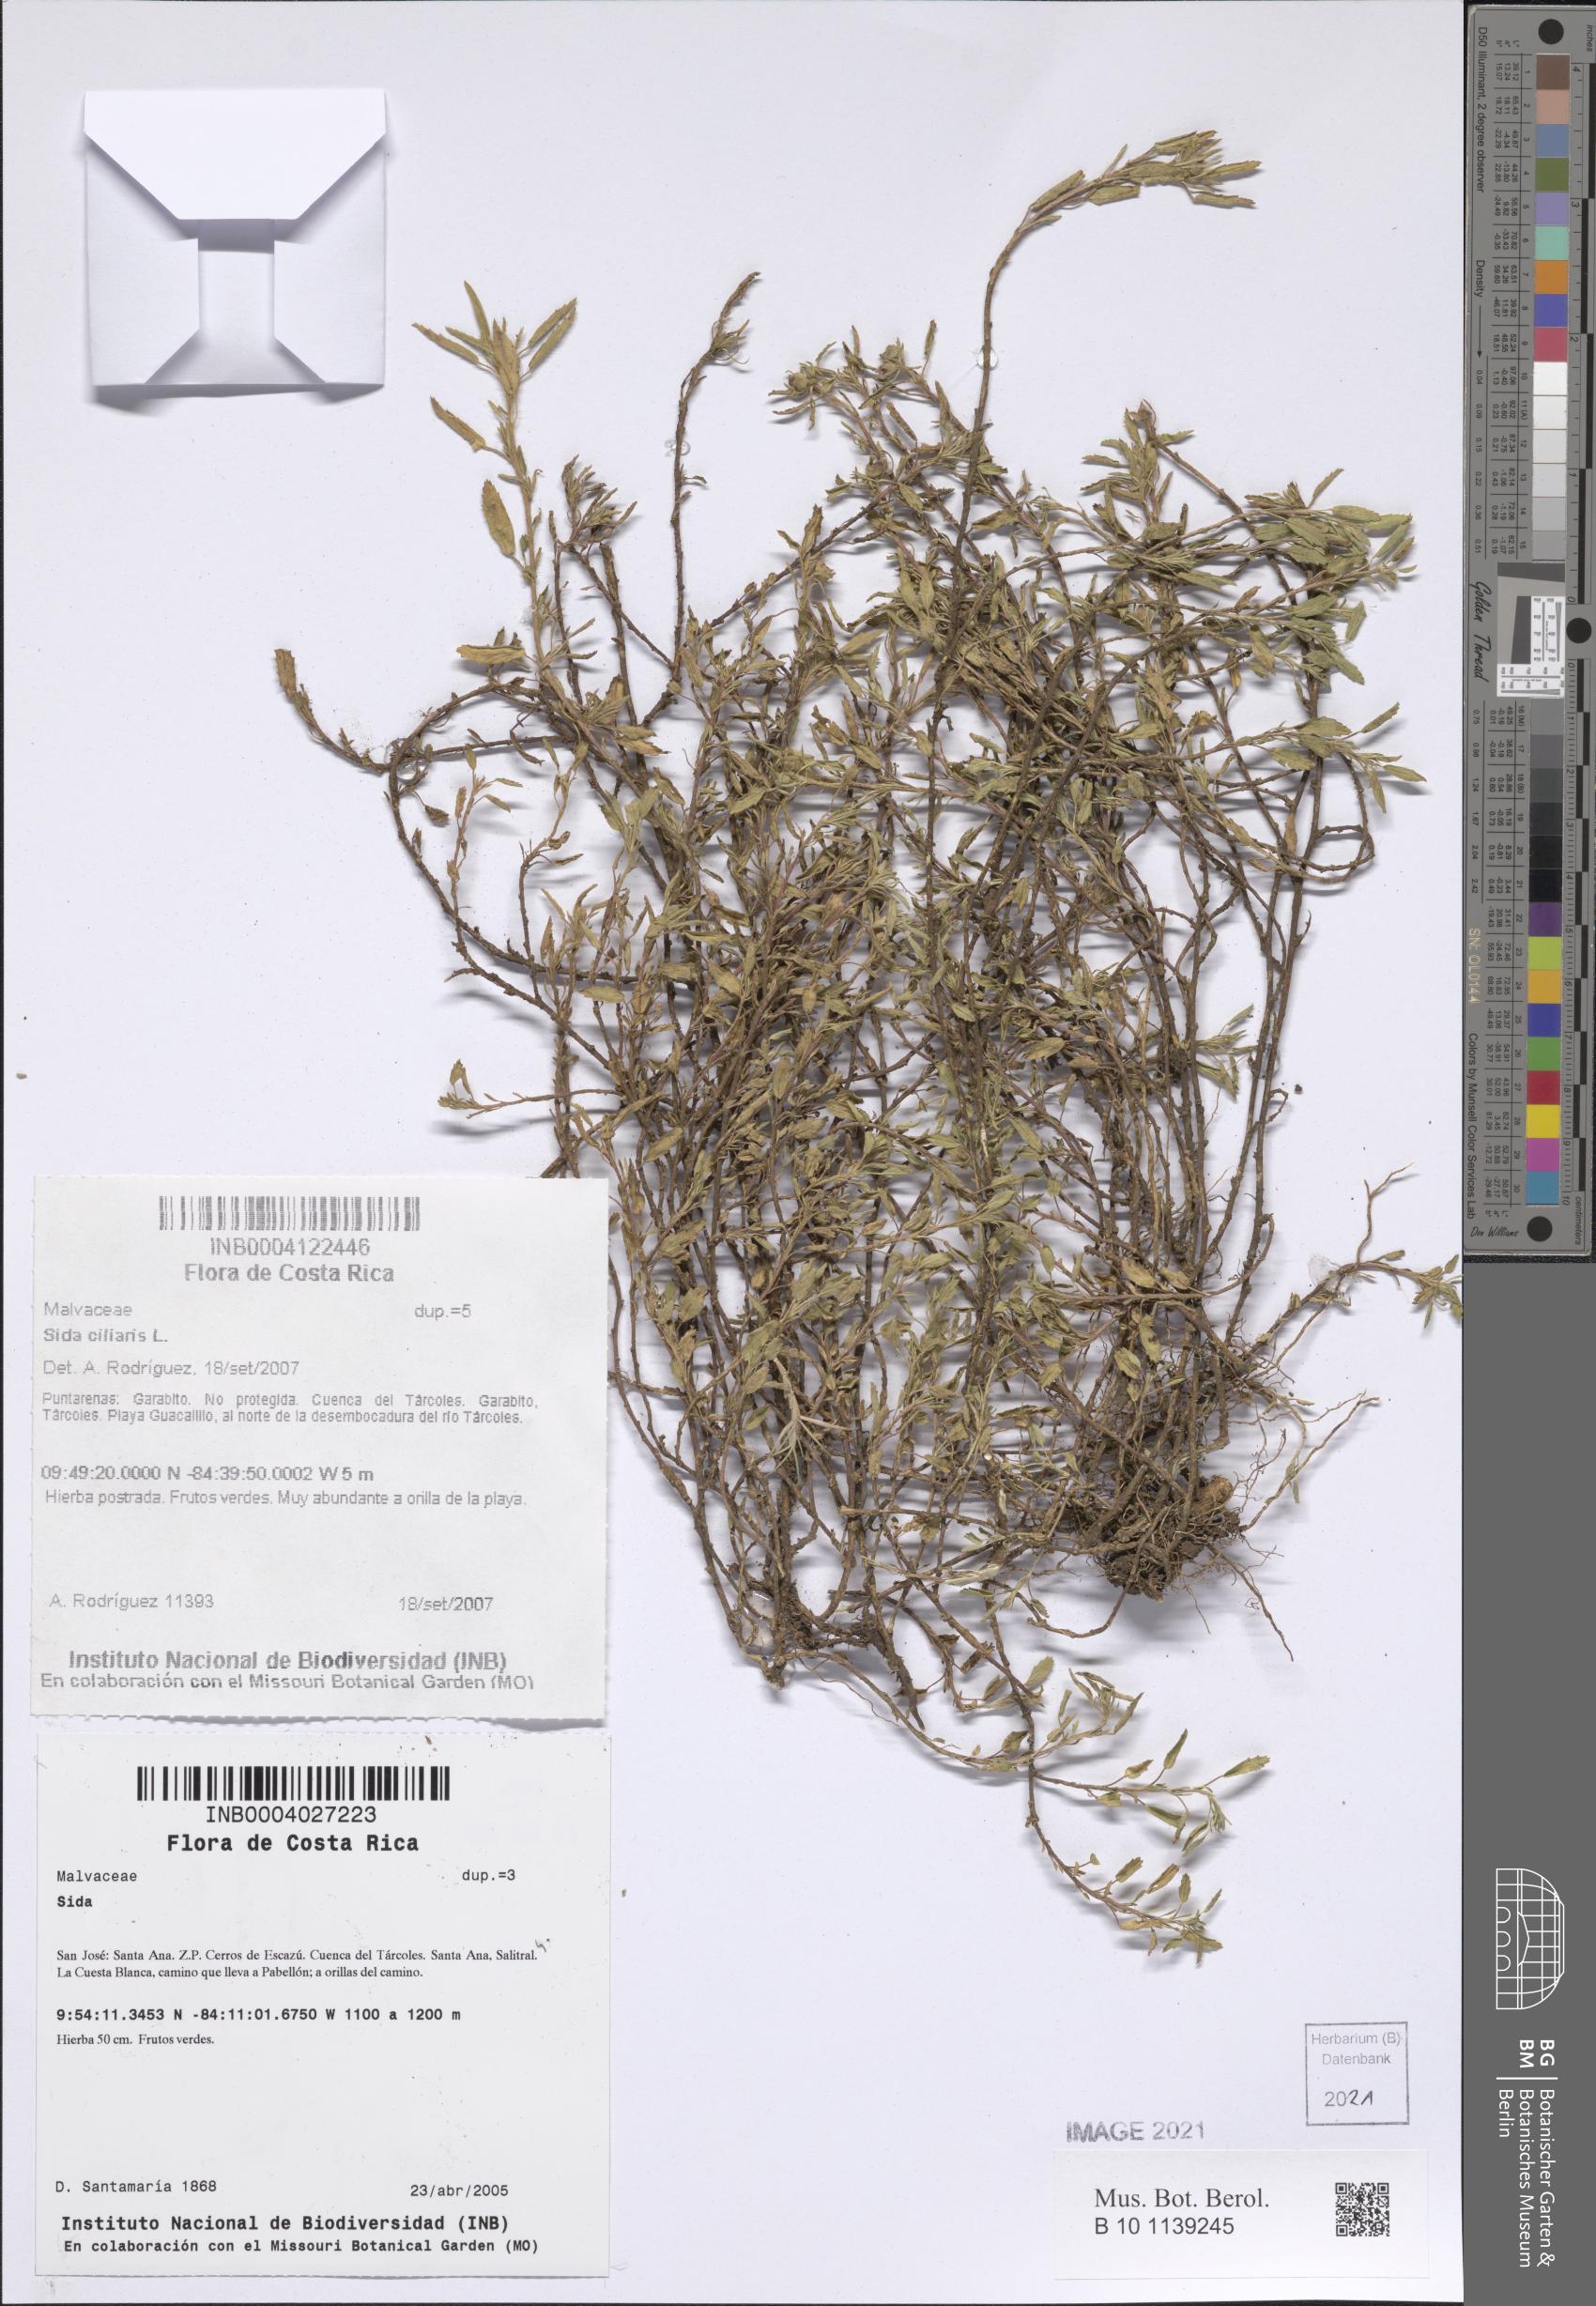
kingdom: Plantae
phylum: Tracheophyta
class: Magnoliopsida
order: Malvales
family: Malvaceae
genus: Sida
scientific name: Sida rhombifolia
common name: Queensland-hemp
